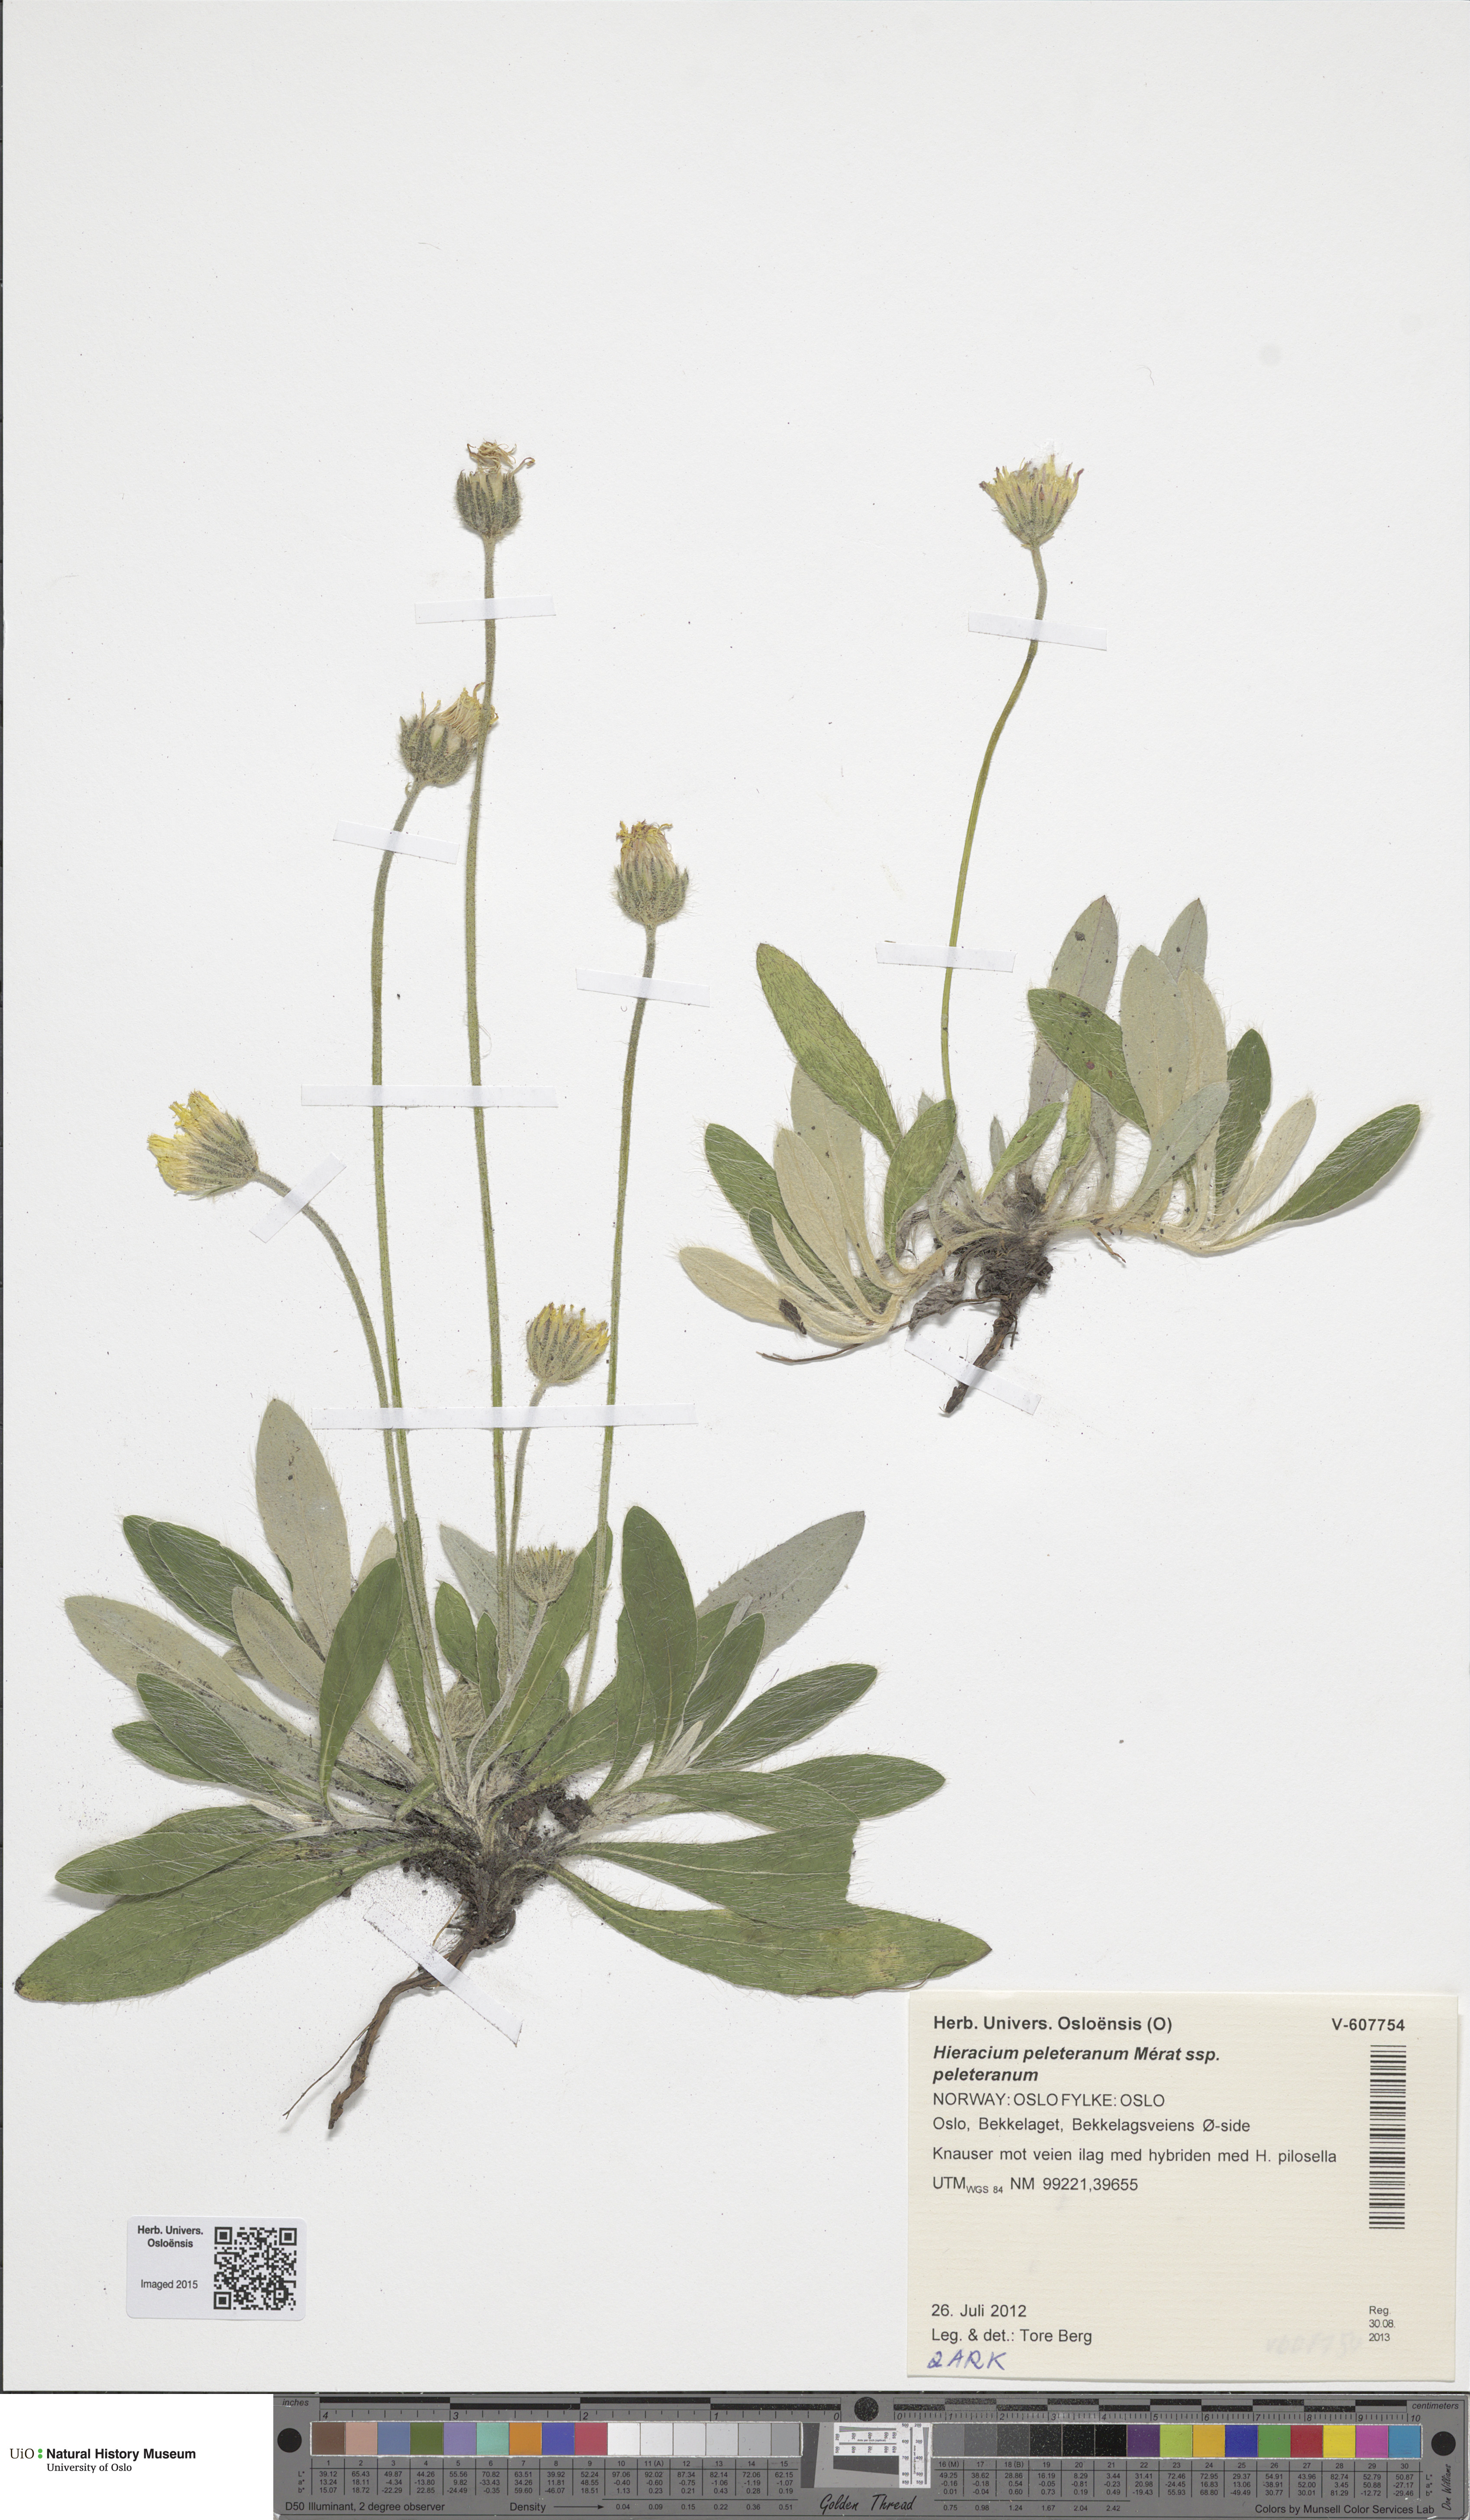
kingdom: Plantae
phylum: Tracheophyta
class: Magnoliopsida
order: Asterales
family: Asteraceae
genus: Pilosella
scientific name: Pilosella peleteriana
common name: Shaggy mouse-ear-hawkweed
